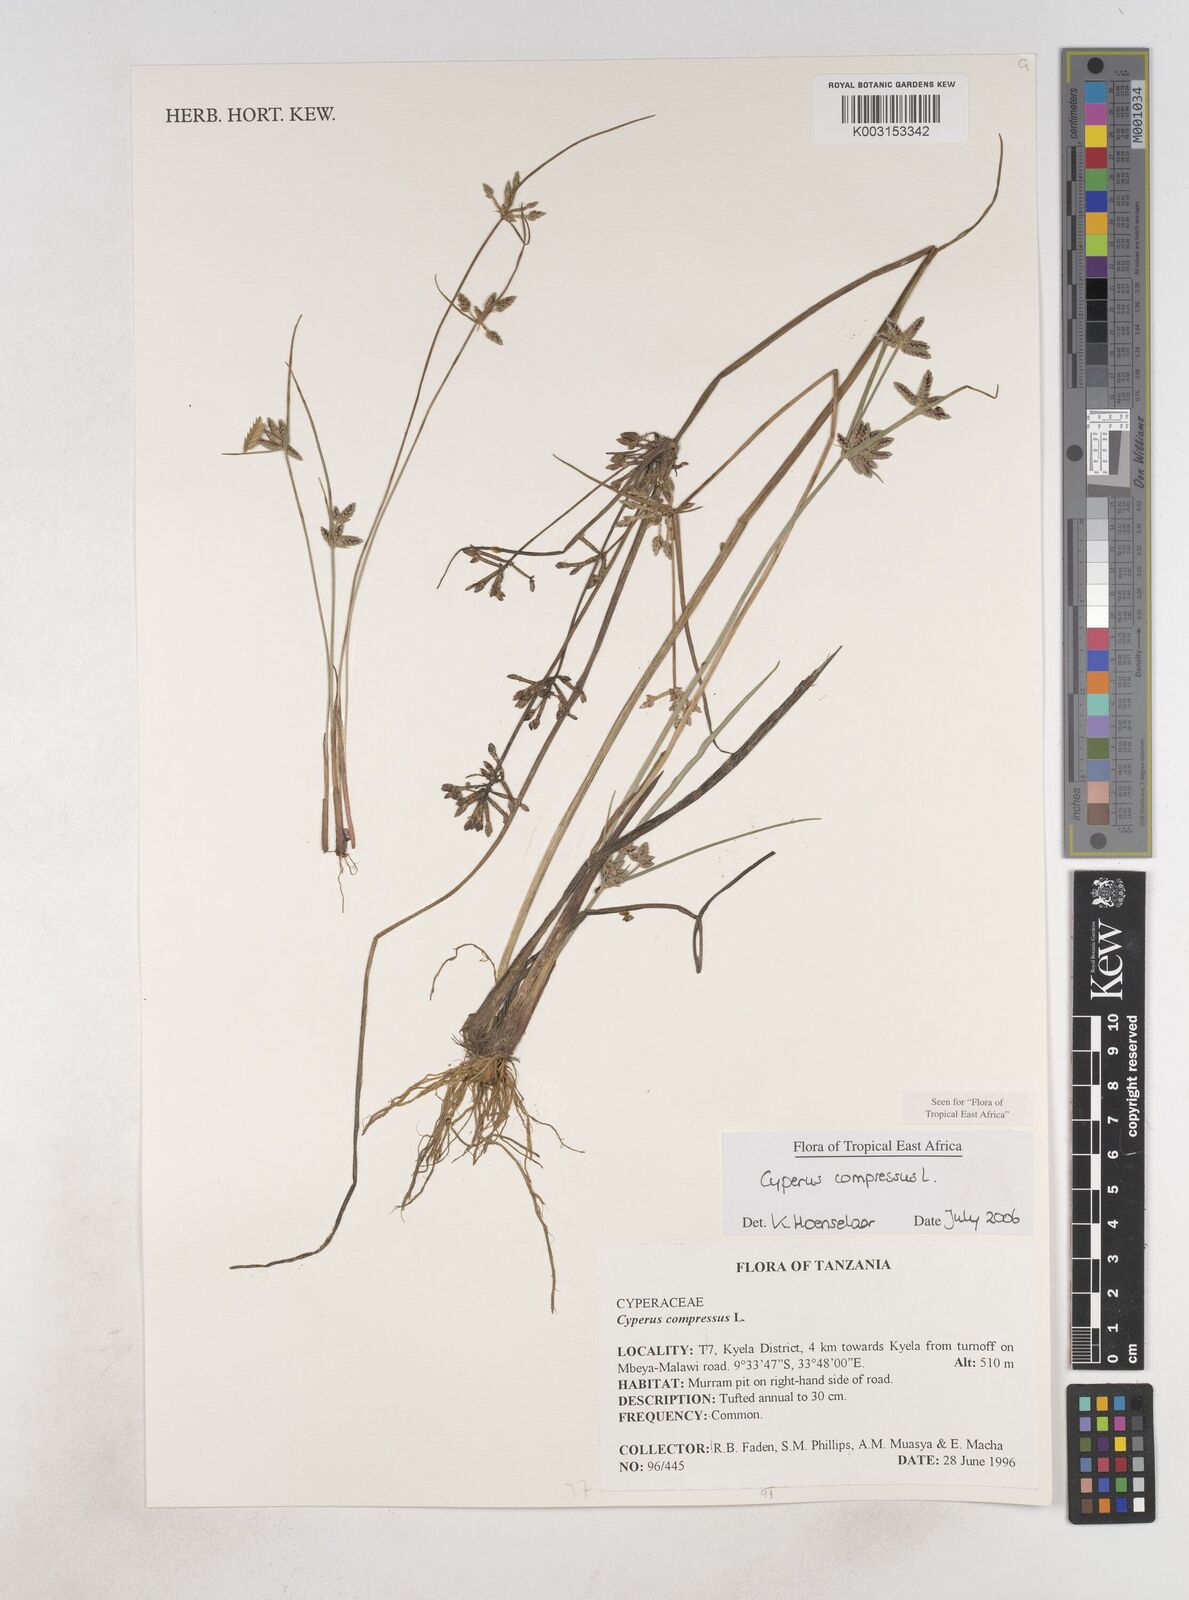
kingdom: Plantae
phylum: Tracheophyta
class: Liliopsida
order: Poales
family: Cyperaceae
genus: Cyperus
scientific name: Cyperus compressus
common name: Poorland flatsedge
